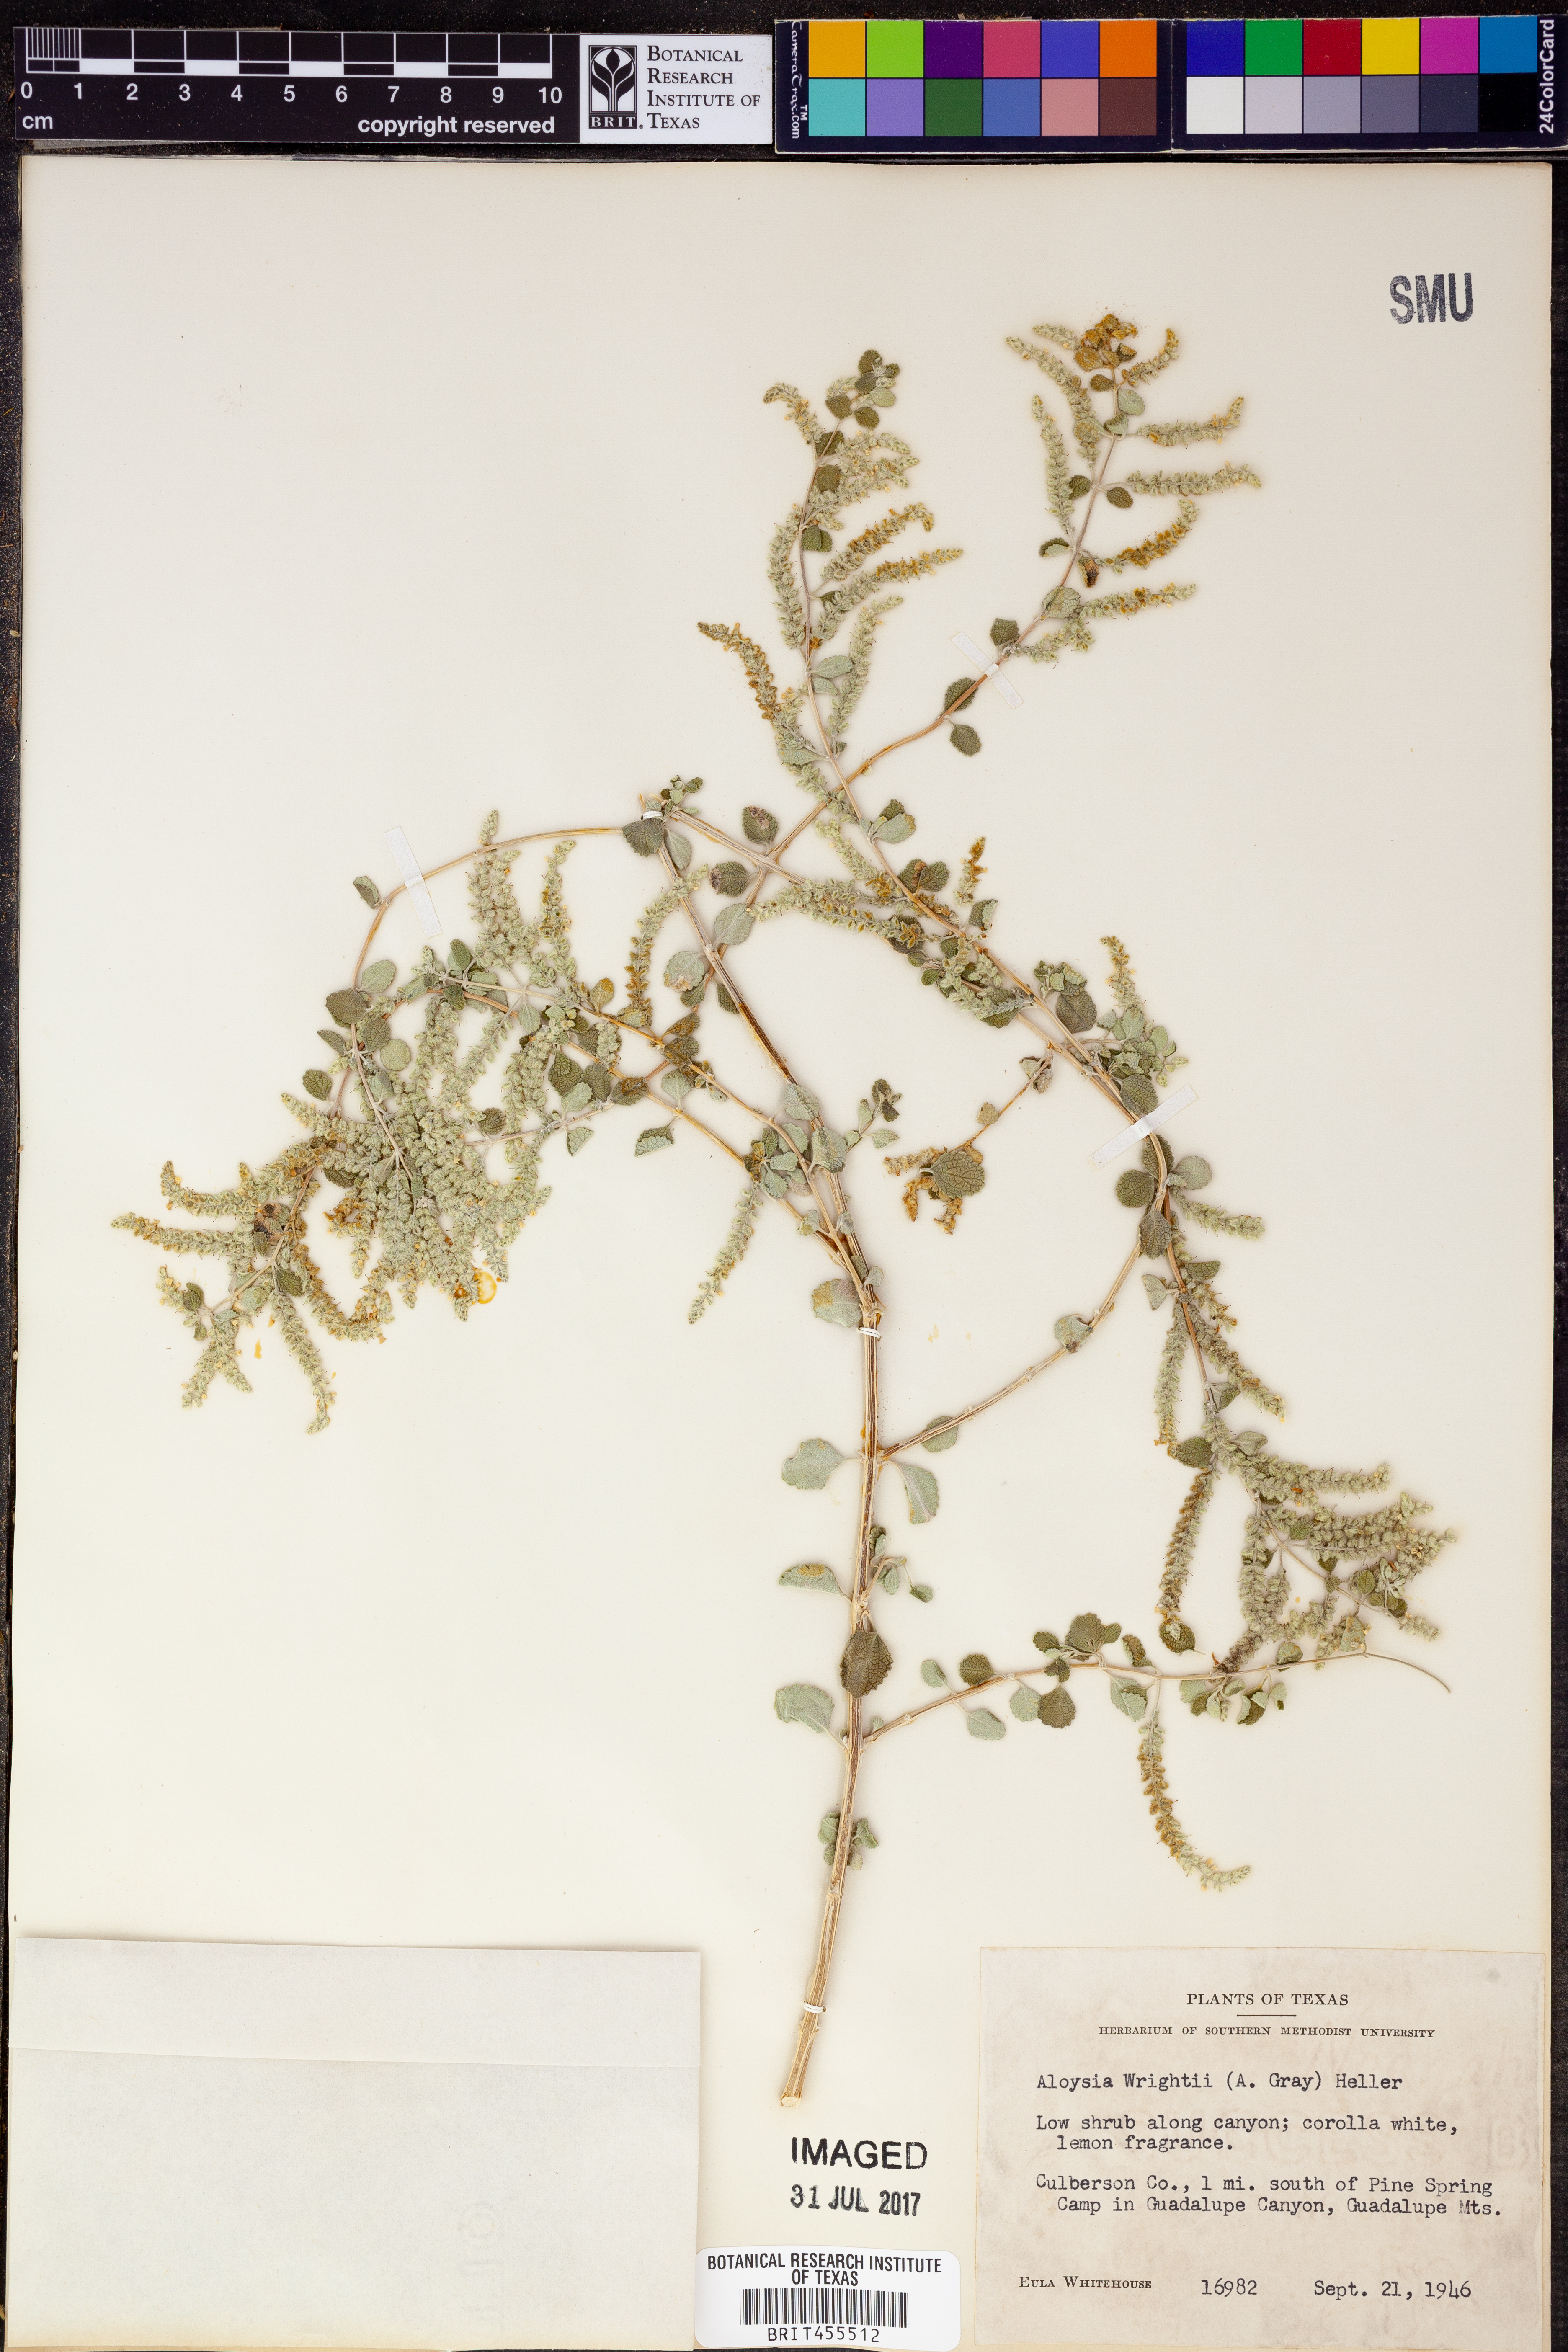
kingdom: Plantae
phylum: Tracheophyta
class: Magnoliopsida
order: Lamiales
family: Verbenaceae
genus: Aloysia
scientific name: Aloysia wrightii
